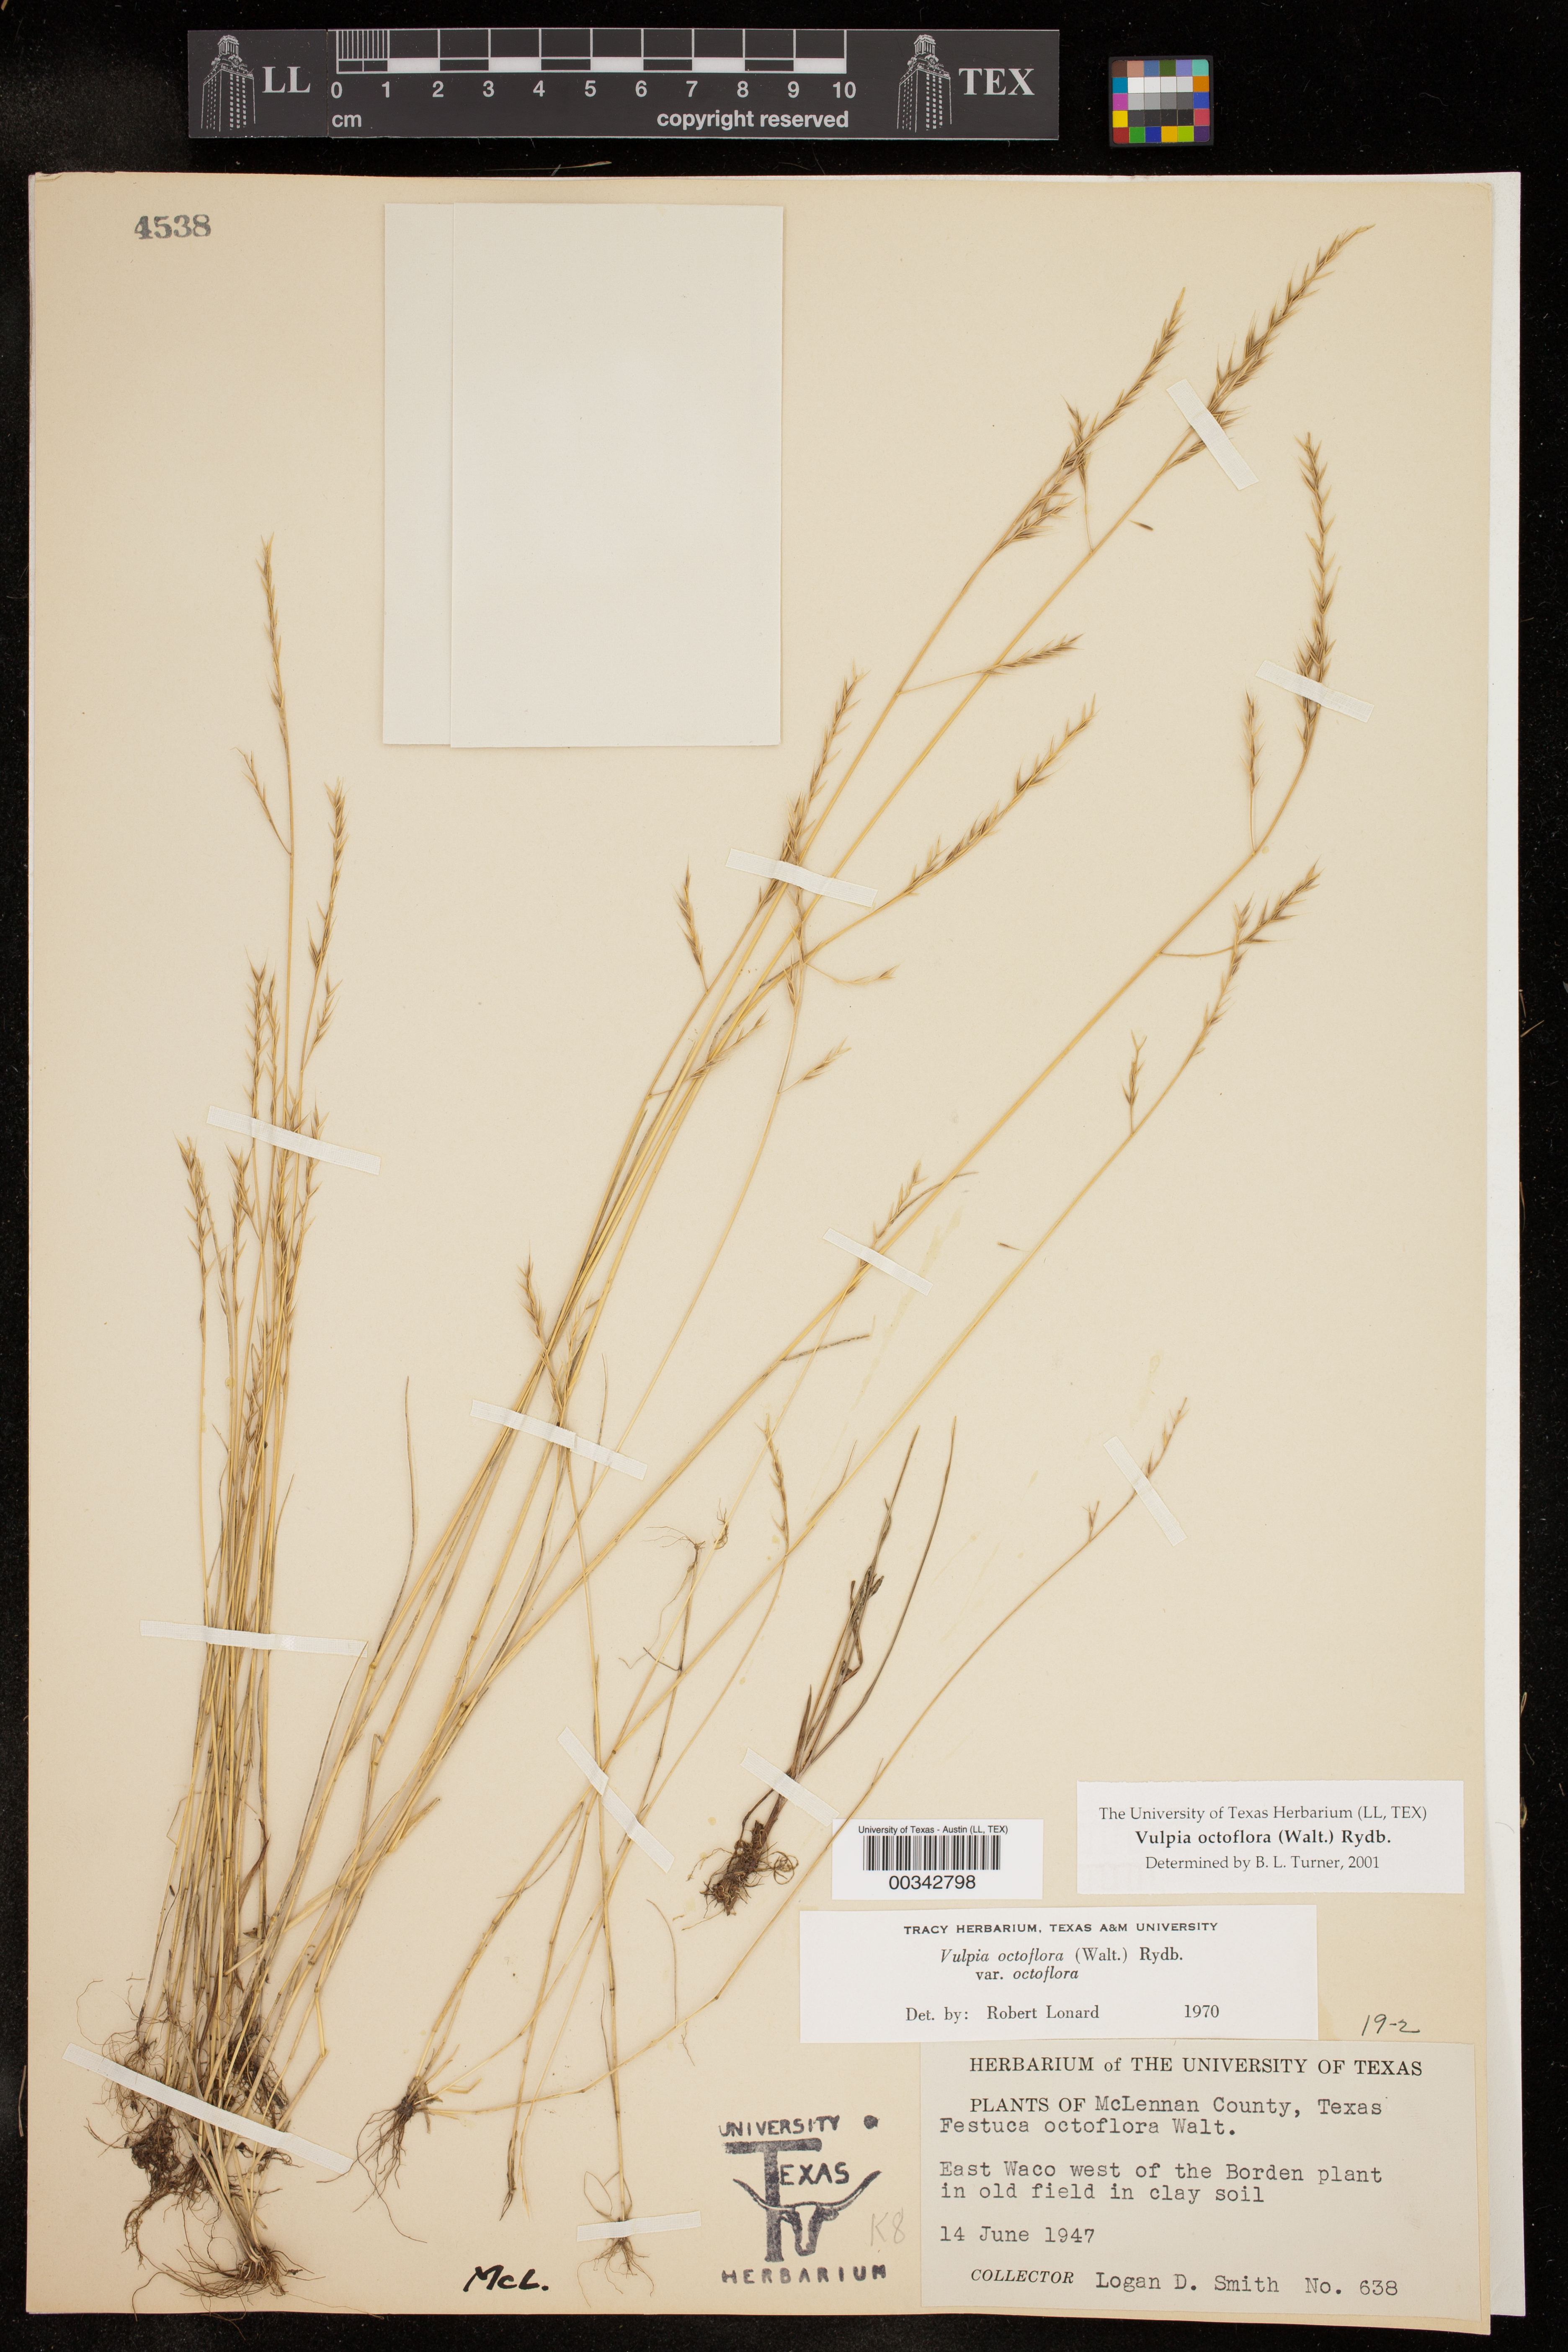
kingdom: Plantae
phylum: Tracheophyta
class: Liliopsida
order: Poales
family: Poaceae
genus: Festuca
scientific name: Festuca octoflora
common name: Sixweeks grass
